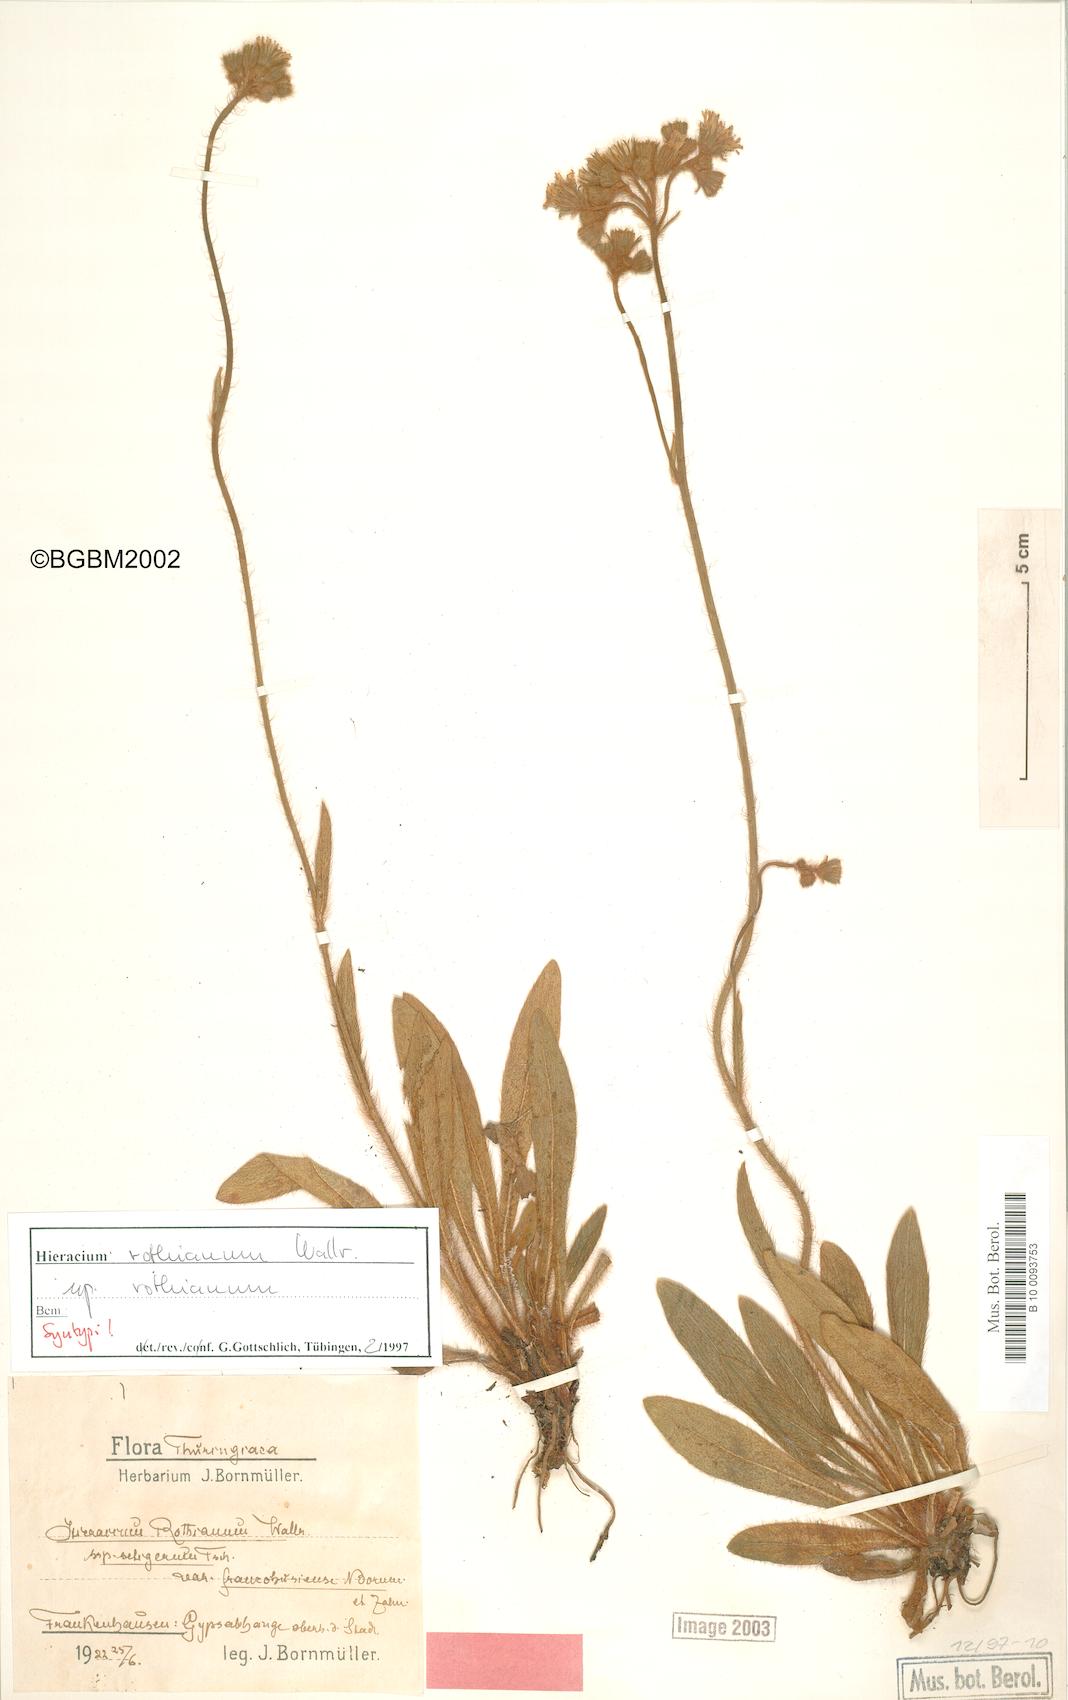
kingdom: Plantae
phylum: Tracheophyta
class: Magnoliopsida
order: Asterales
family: Asteraceae
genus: Hieracium
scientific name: Hieracium rothianum
